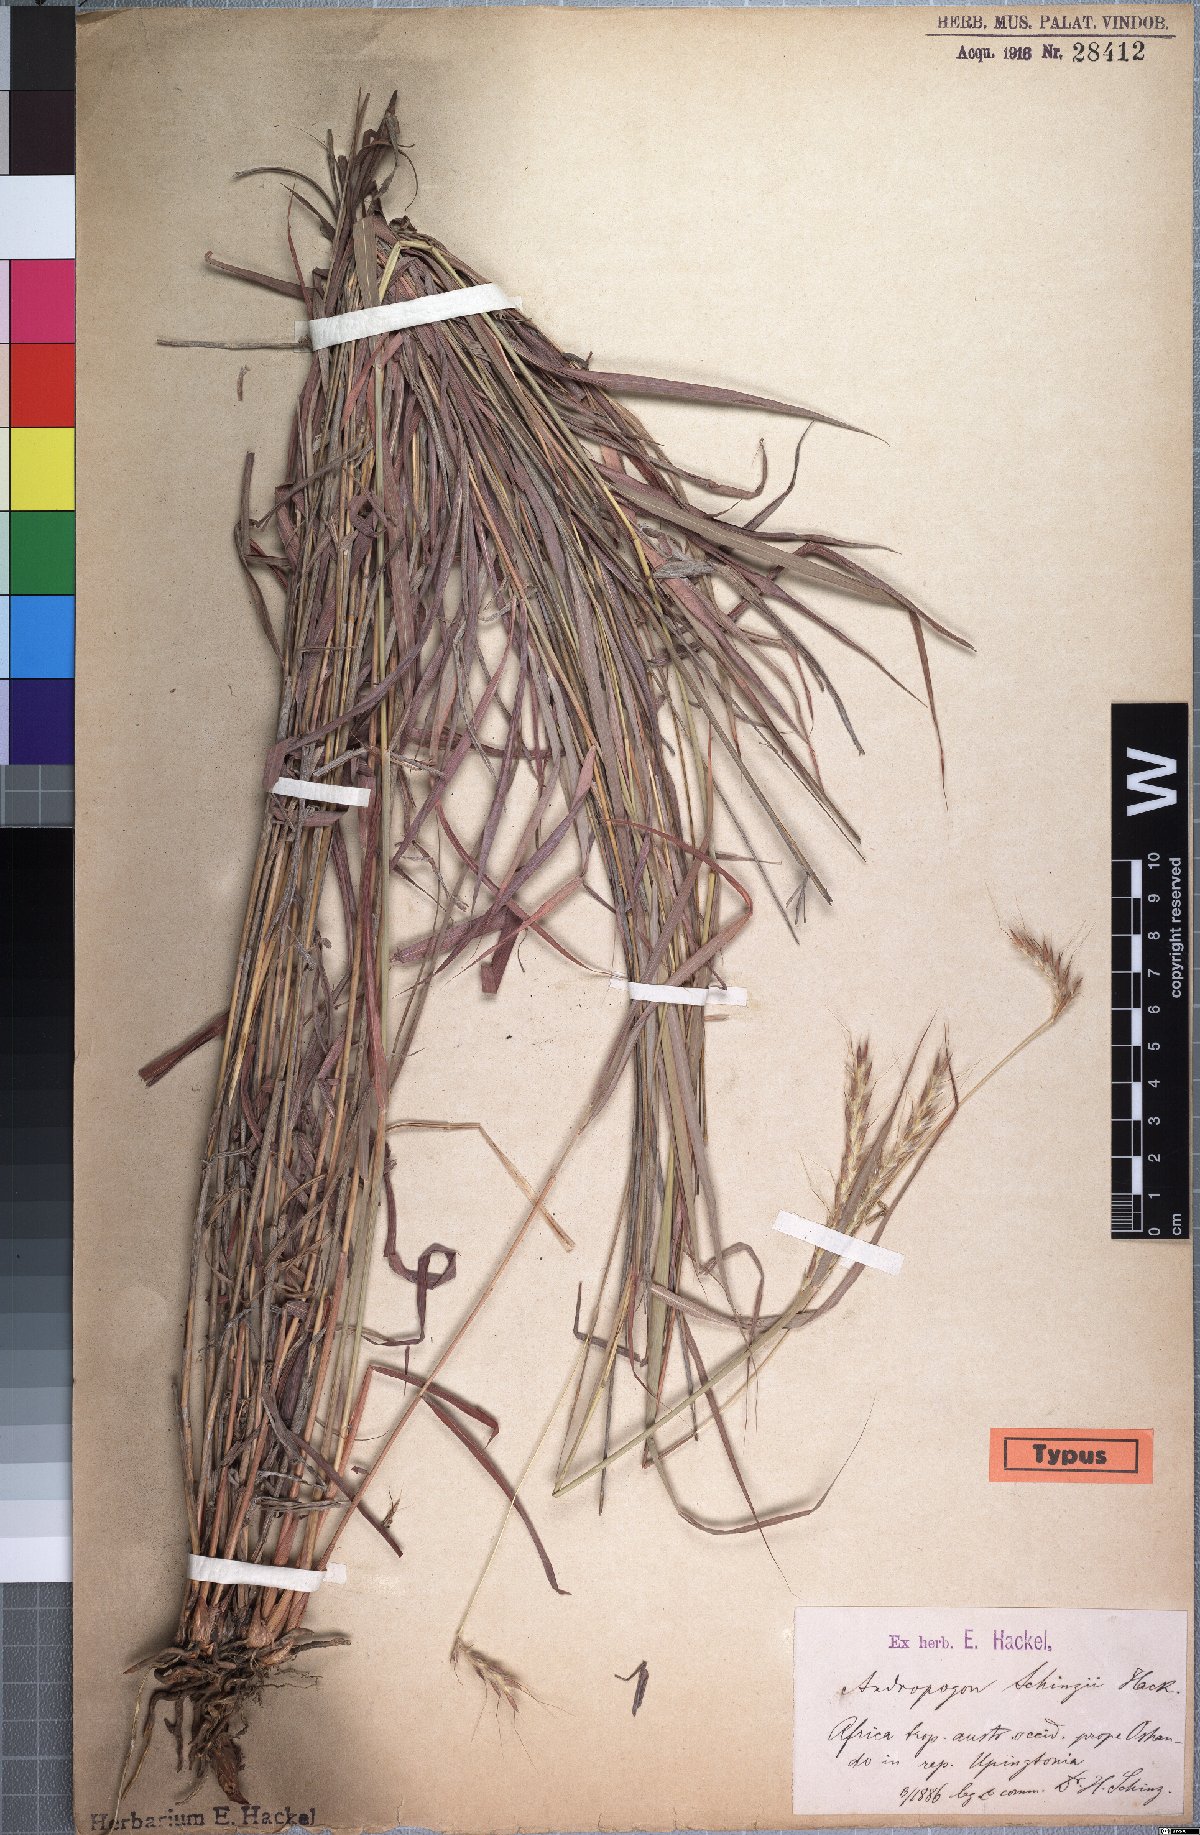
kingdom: Plantae
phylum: Tracheophyta
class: Liliopsida
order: Poales
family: Poaceae
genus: Andropogon
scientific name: Andropogon chinensis
